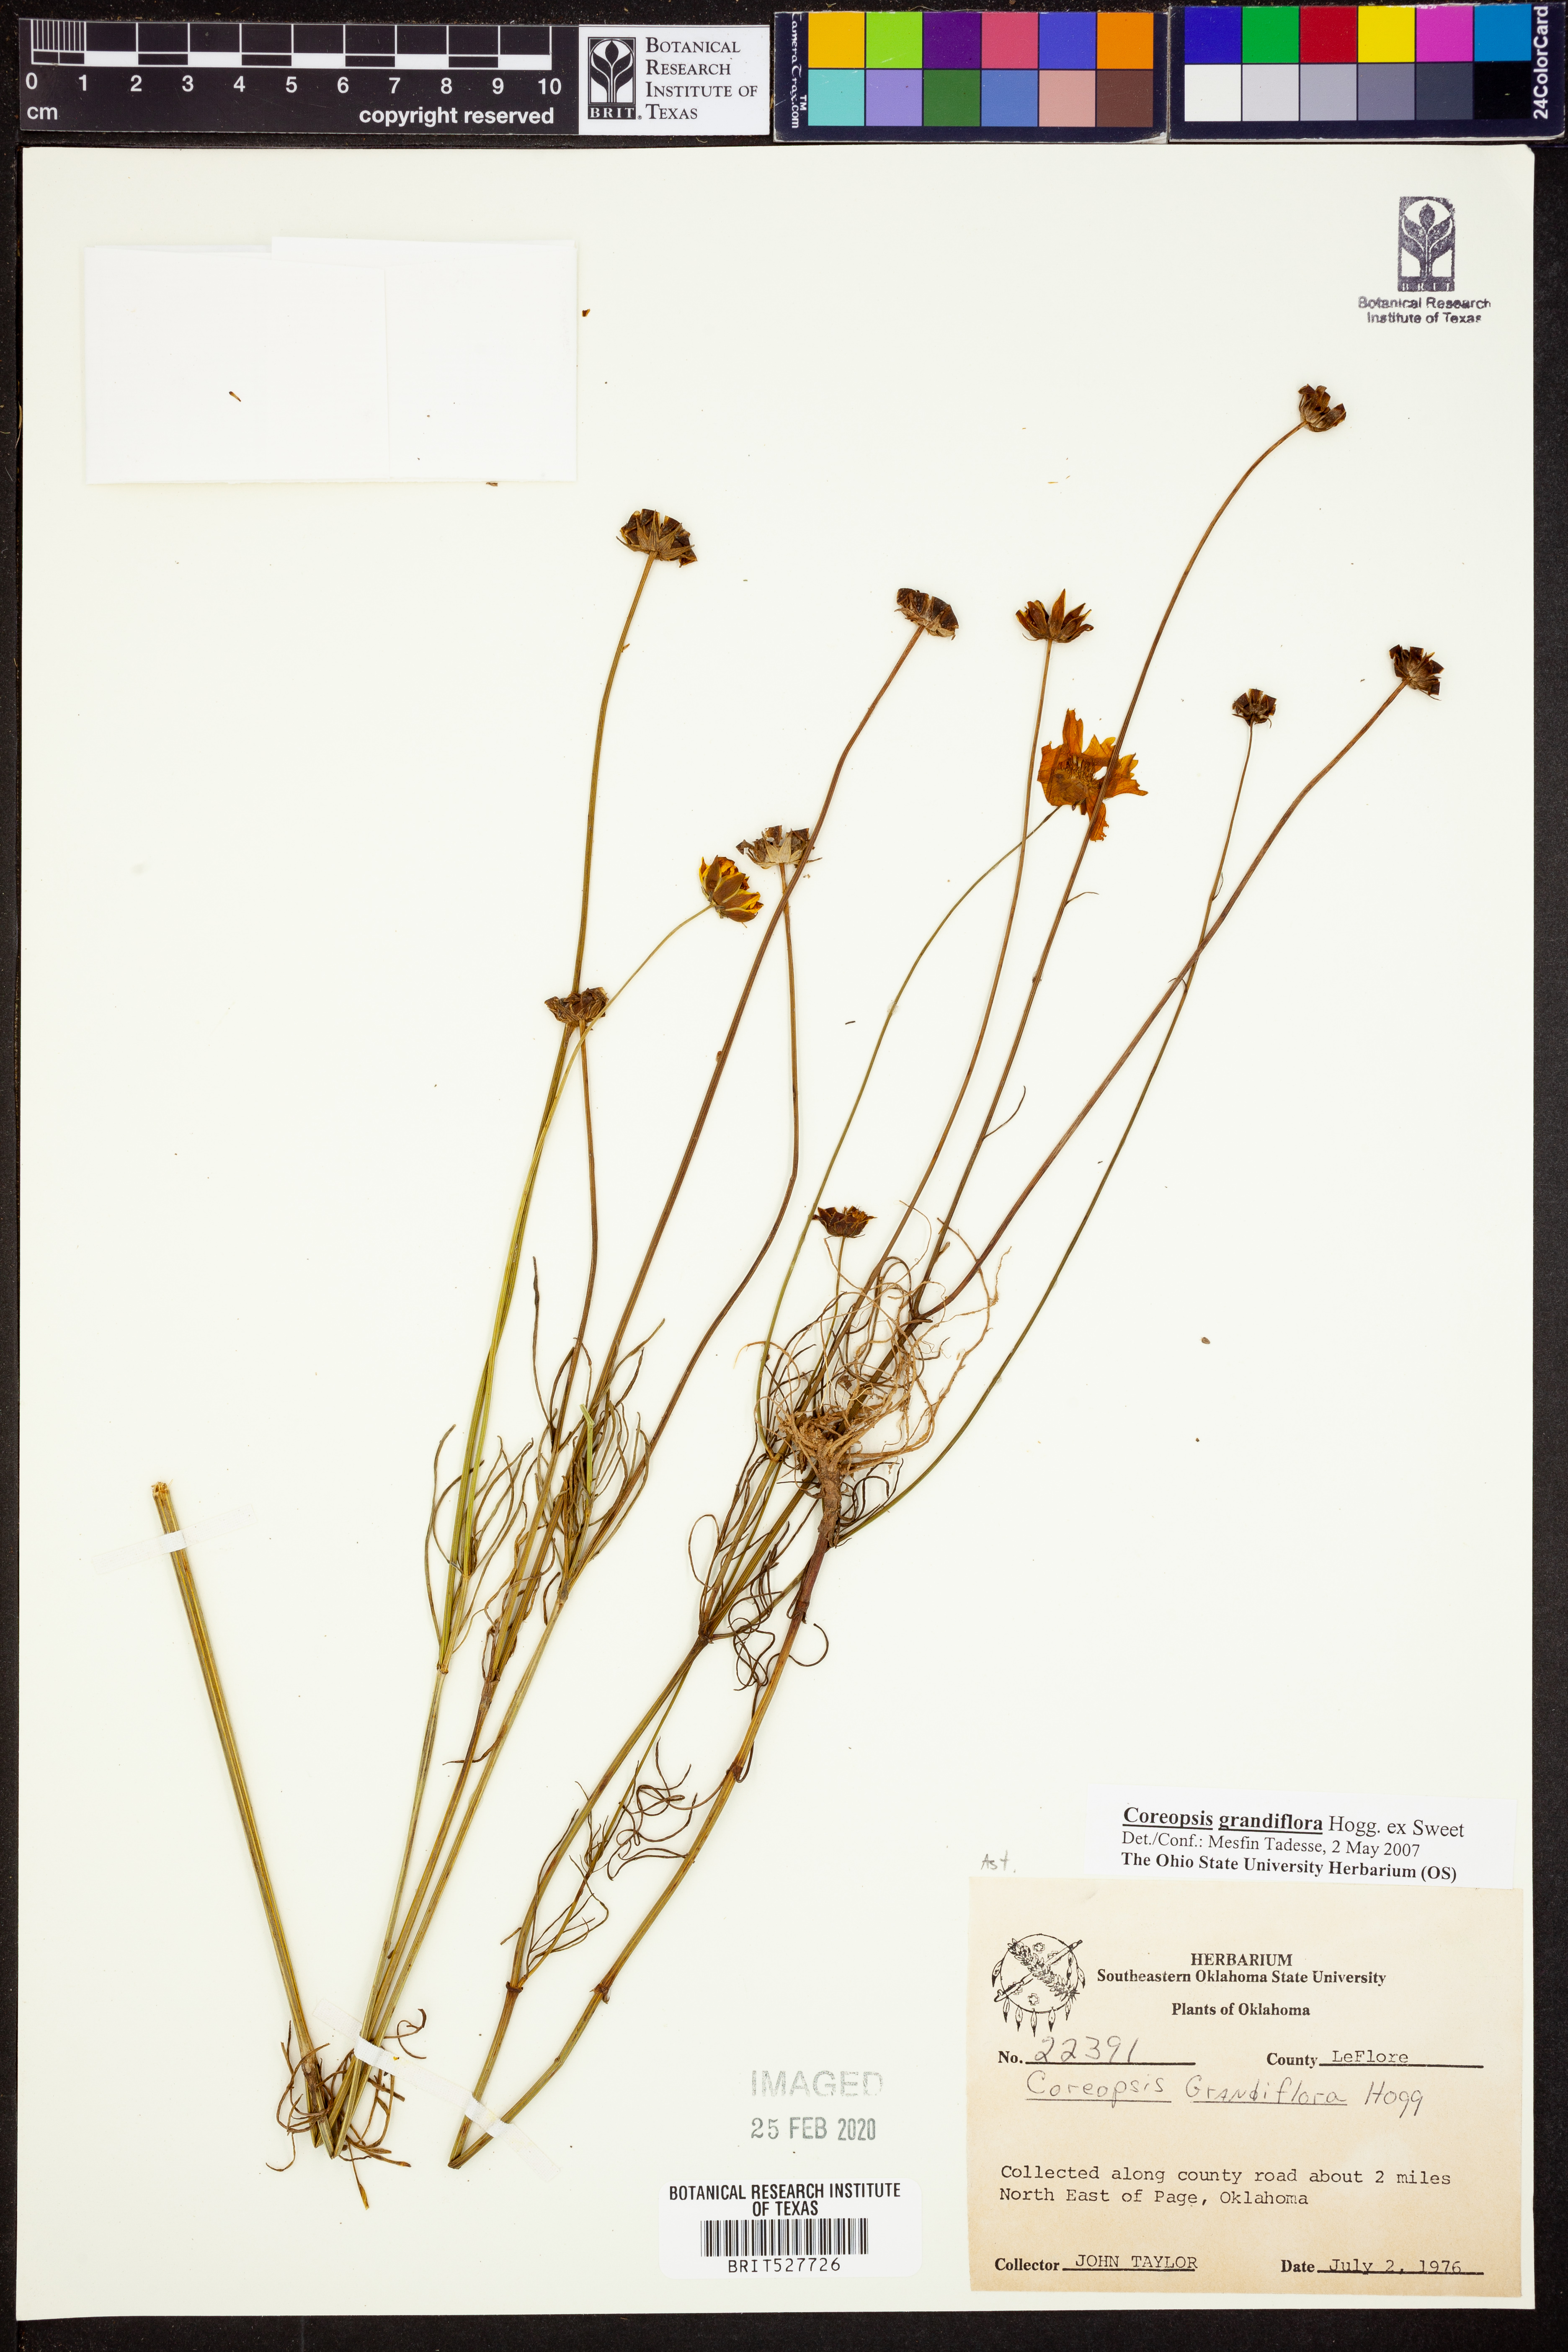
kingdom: Plantae
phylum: Tracheophyta
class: Magnoliopsida
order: Asterales
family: Asteraceae
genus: Coreopsis
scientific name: Coreopsis grandiflora
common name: Large-flowered tickseed
